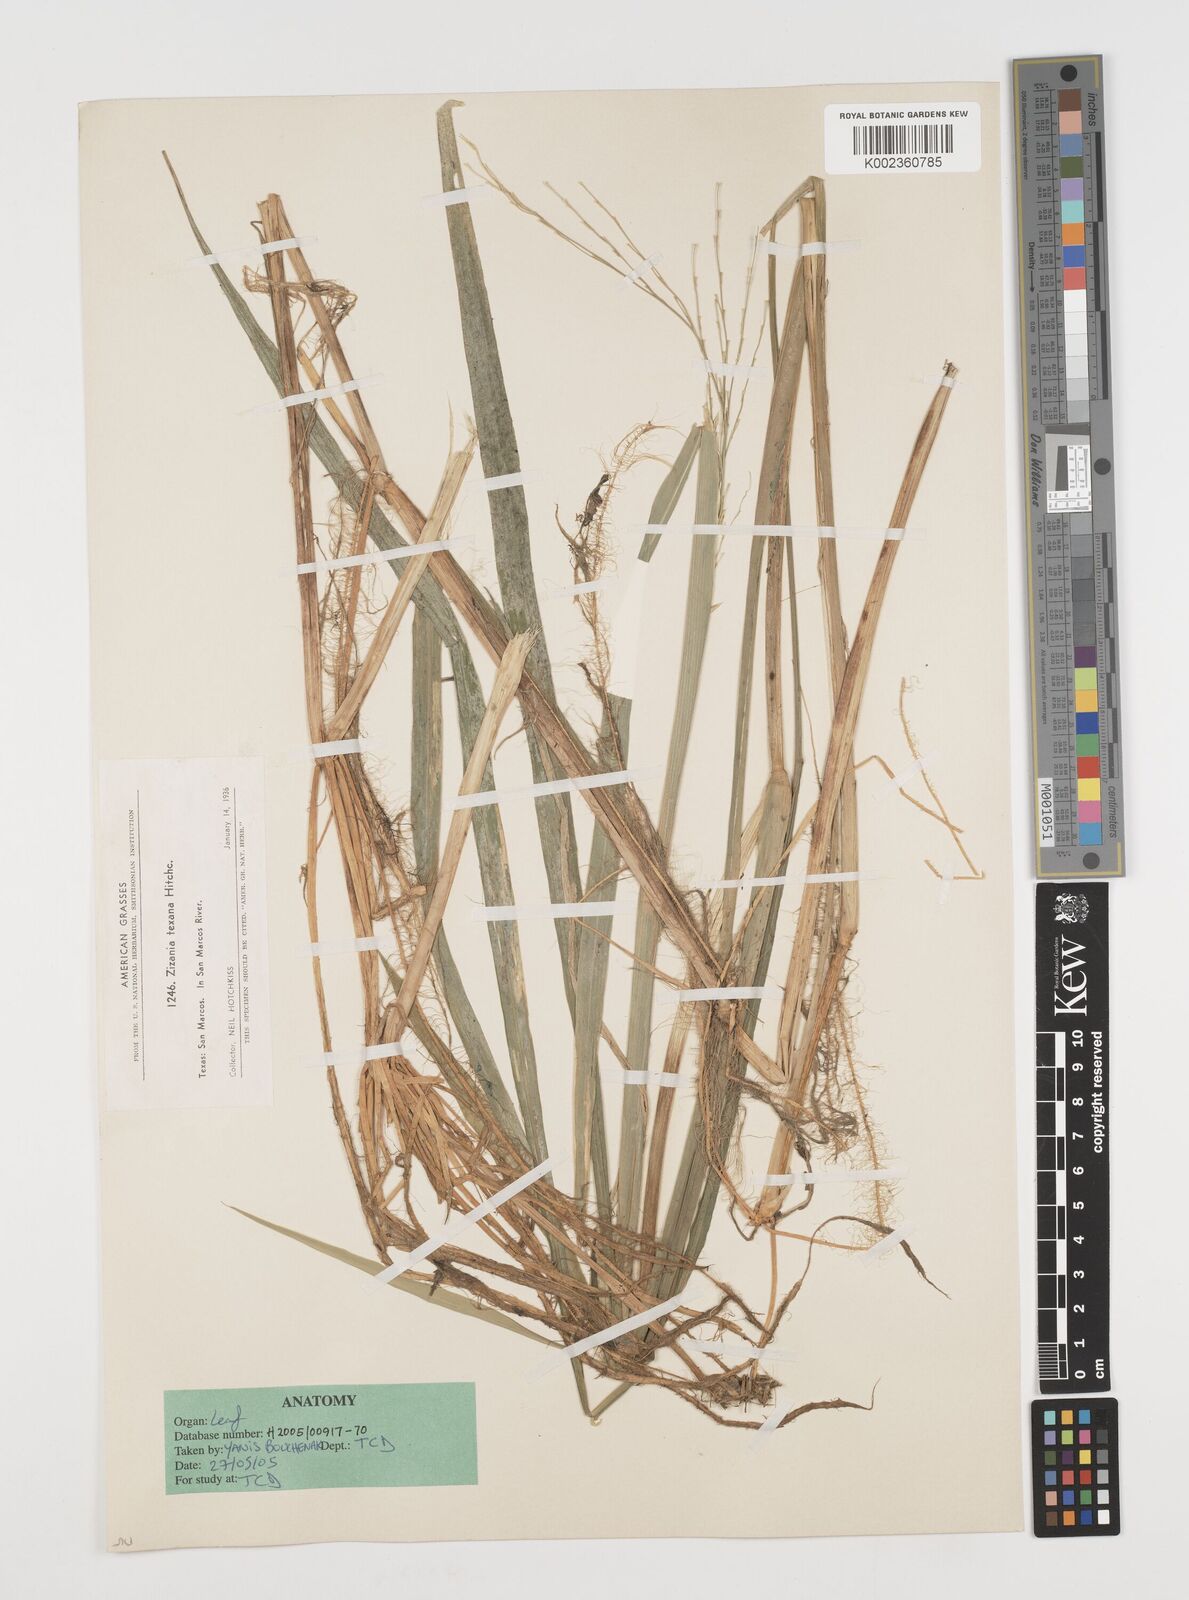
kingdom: Plantae
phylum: Tracheophyta
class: Liliopsida
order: Poales
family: Poaceae
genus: Zizania
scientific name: Zizania texana
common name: Texas wild rice
